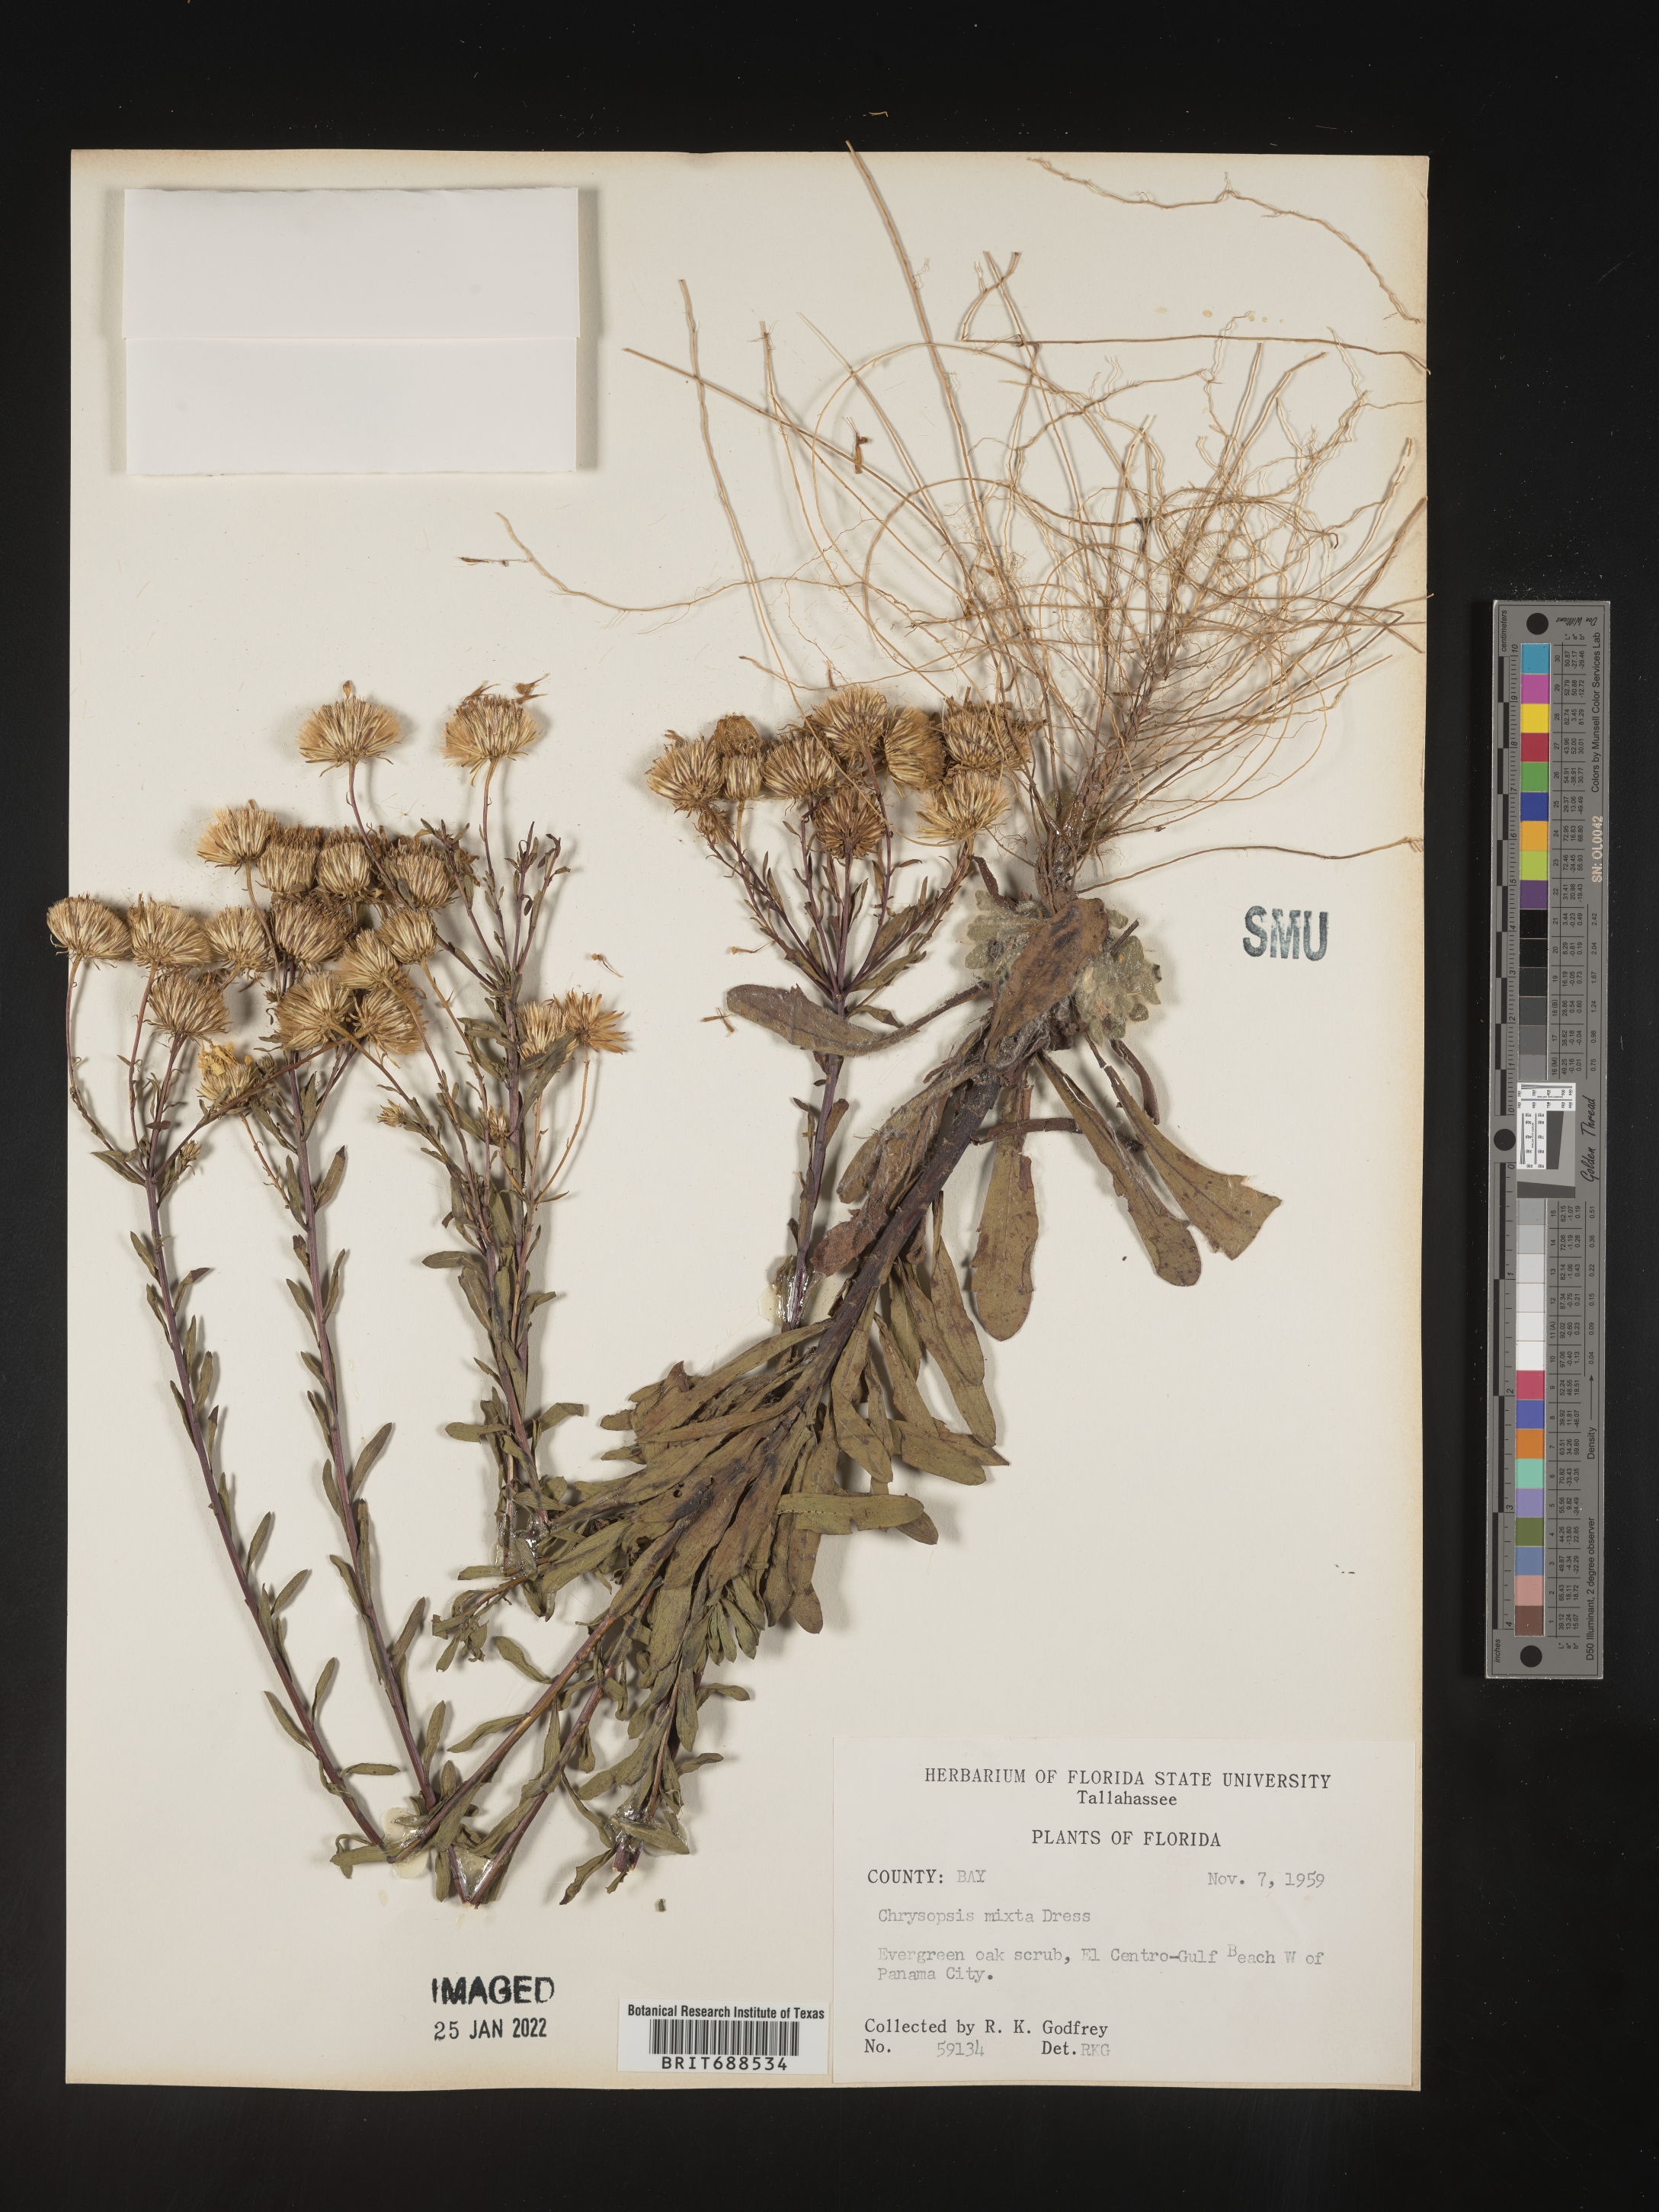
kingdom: Plantae
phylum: Tracheophyta
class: Magnoliopsida
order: Asterales
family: Asteraceae
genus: Chrysopsis
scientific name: Chrysopsis gossypina
